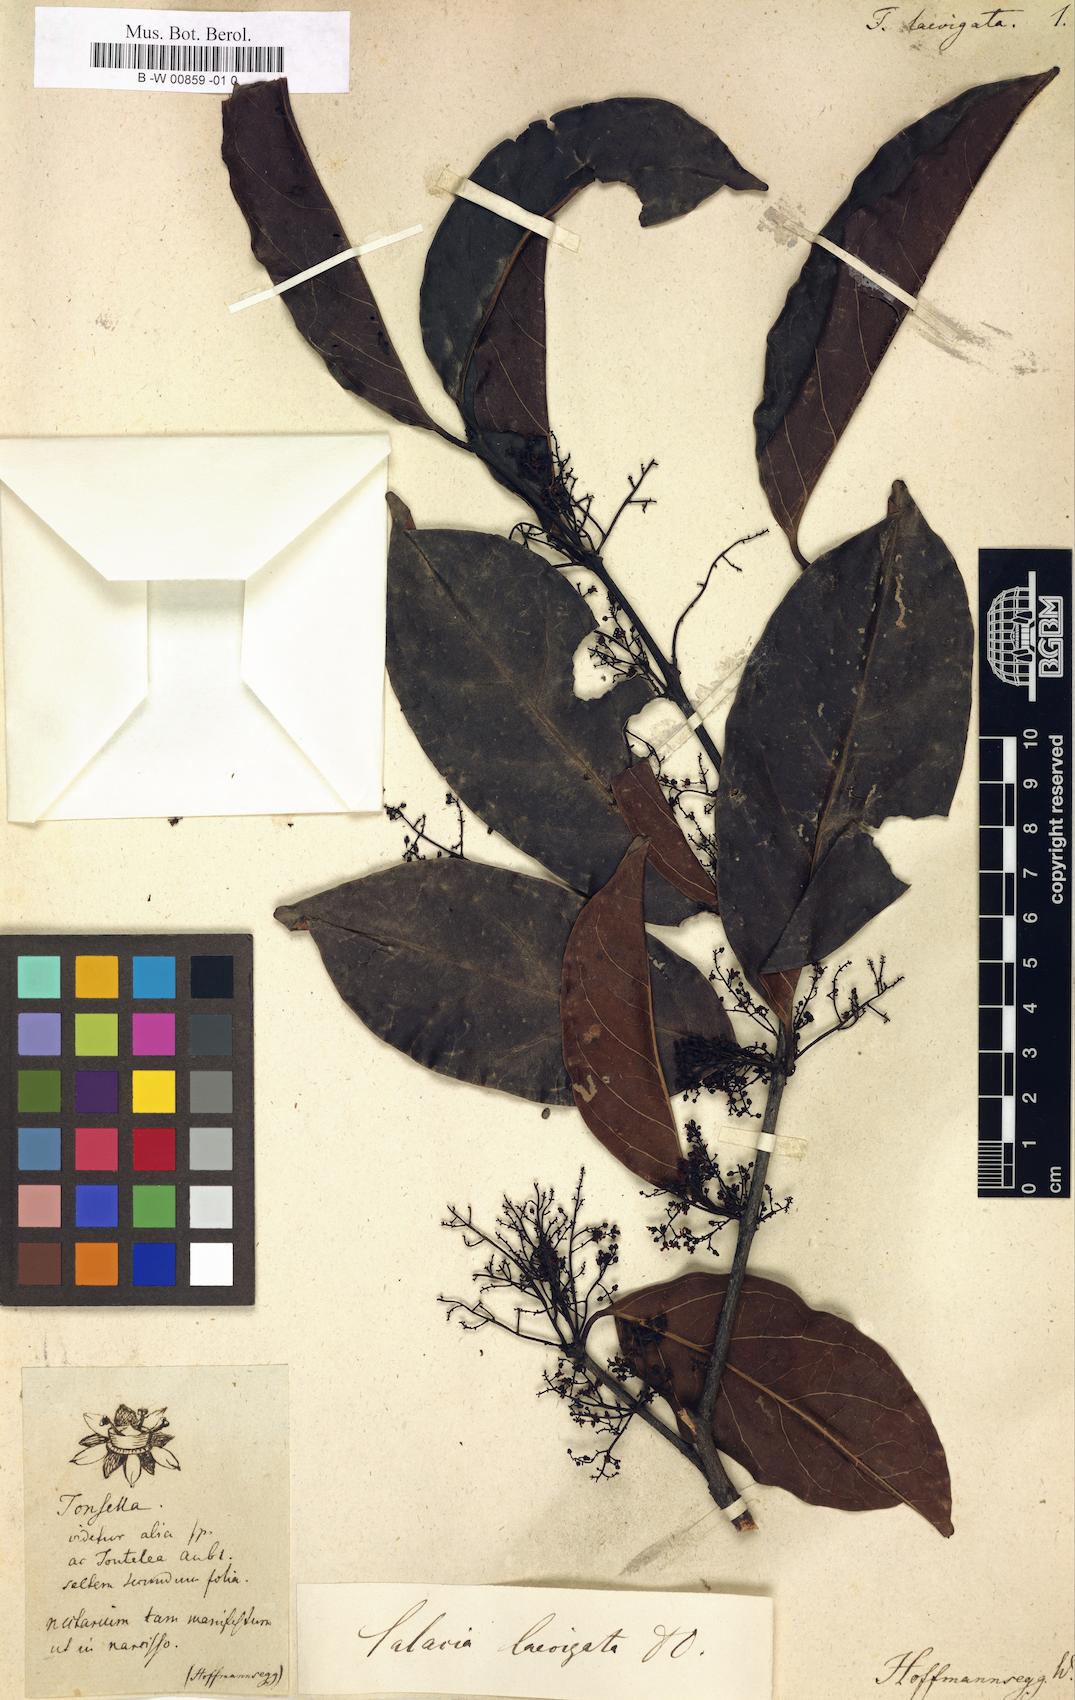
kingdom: Plantae
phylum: Tracheophyta
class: Magnoliopsida
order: Celastrales
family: Celastraceae
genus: Peritassa
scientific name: Peritassa laevigata
